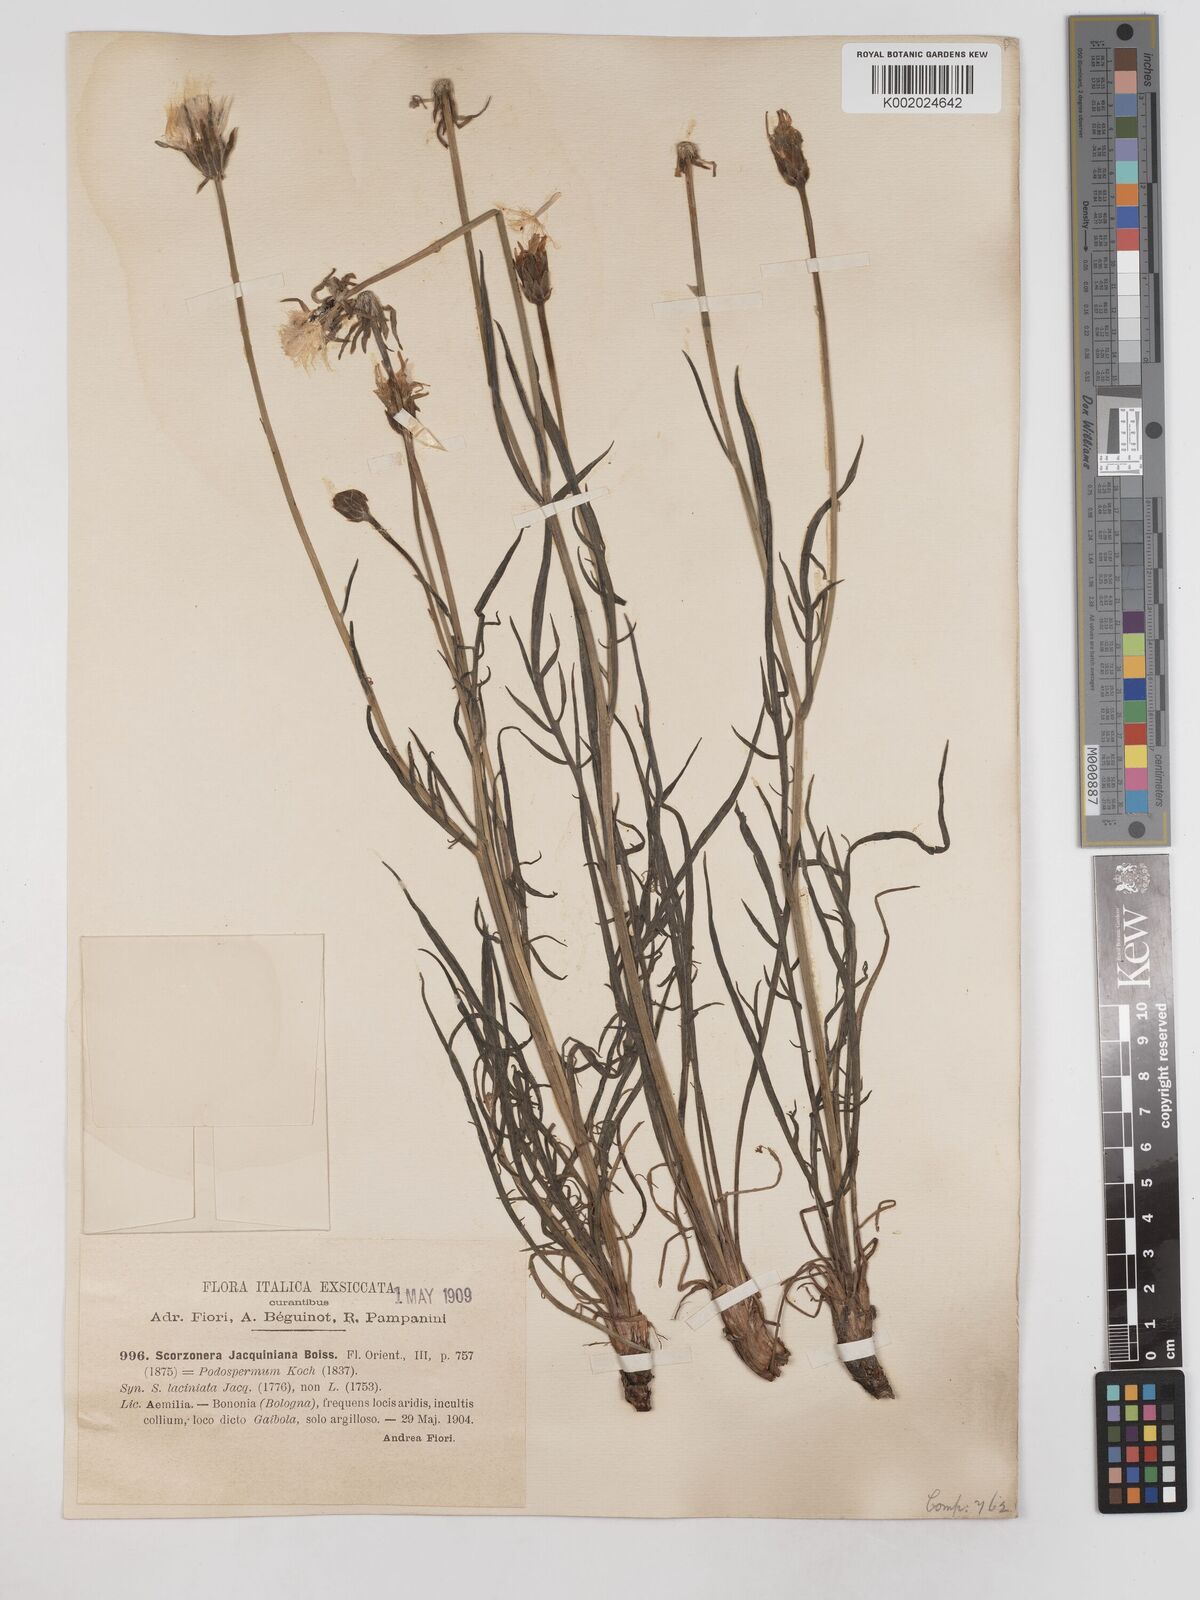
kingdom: Plantae
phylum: Tracheophyta
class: Magnoliopsida
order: Asterales
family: Asteraceae
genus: Scorzonera
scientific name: Scorzonera cana
